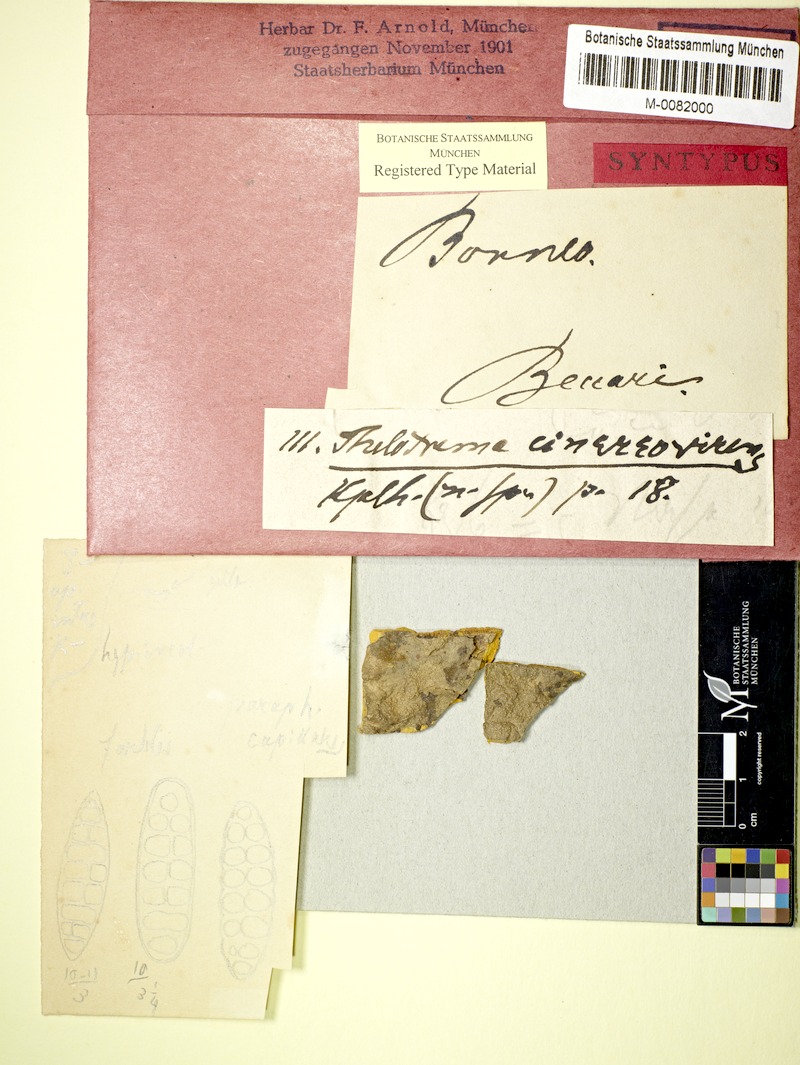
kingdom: Fungi
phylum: Ascomycota
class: Lecanoromycetes
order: Ostropales
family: Graphidaceae
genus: Thelotrema
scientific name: Thelotrema cinereovirens
